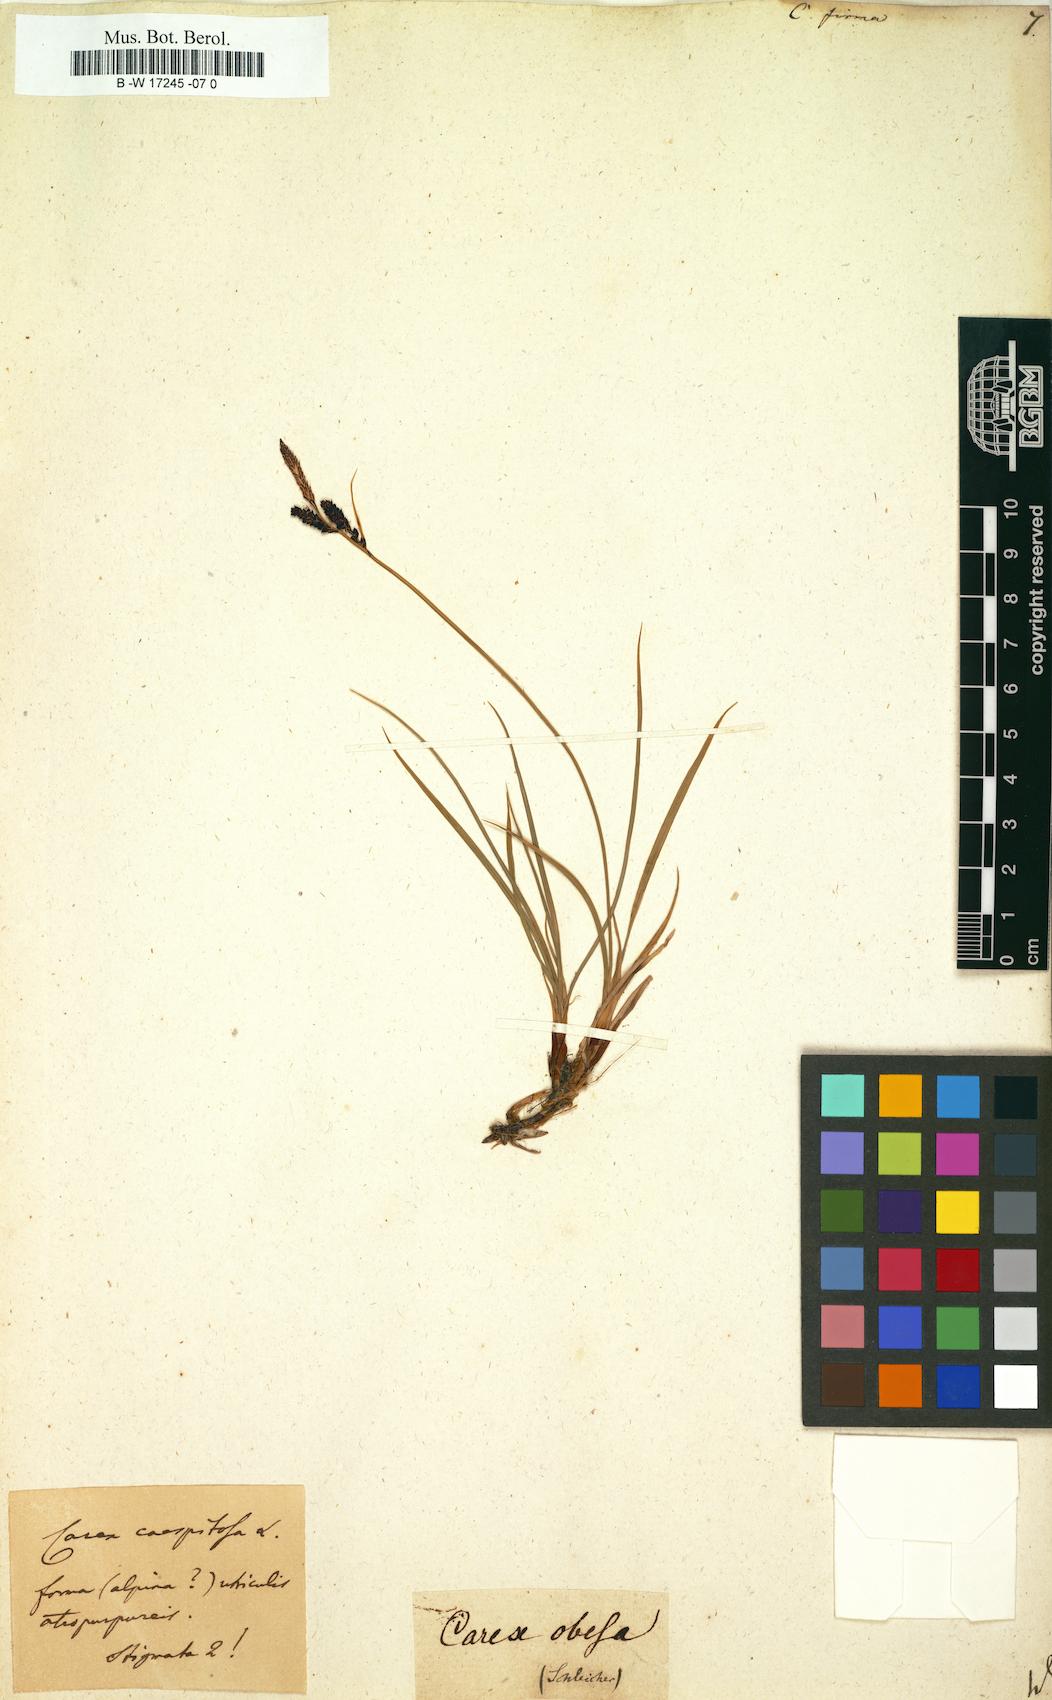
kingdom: Plantae
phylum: Tracheophyta
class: Liliopsida
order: Poales
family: Cyperaceae
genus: Carex
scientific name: Carex firma
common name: Dwarf pillow sedge
